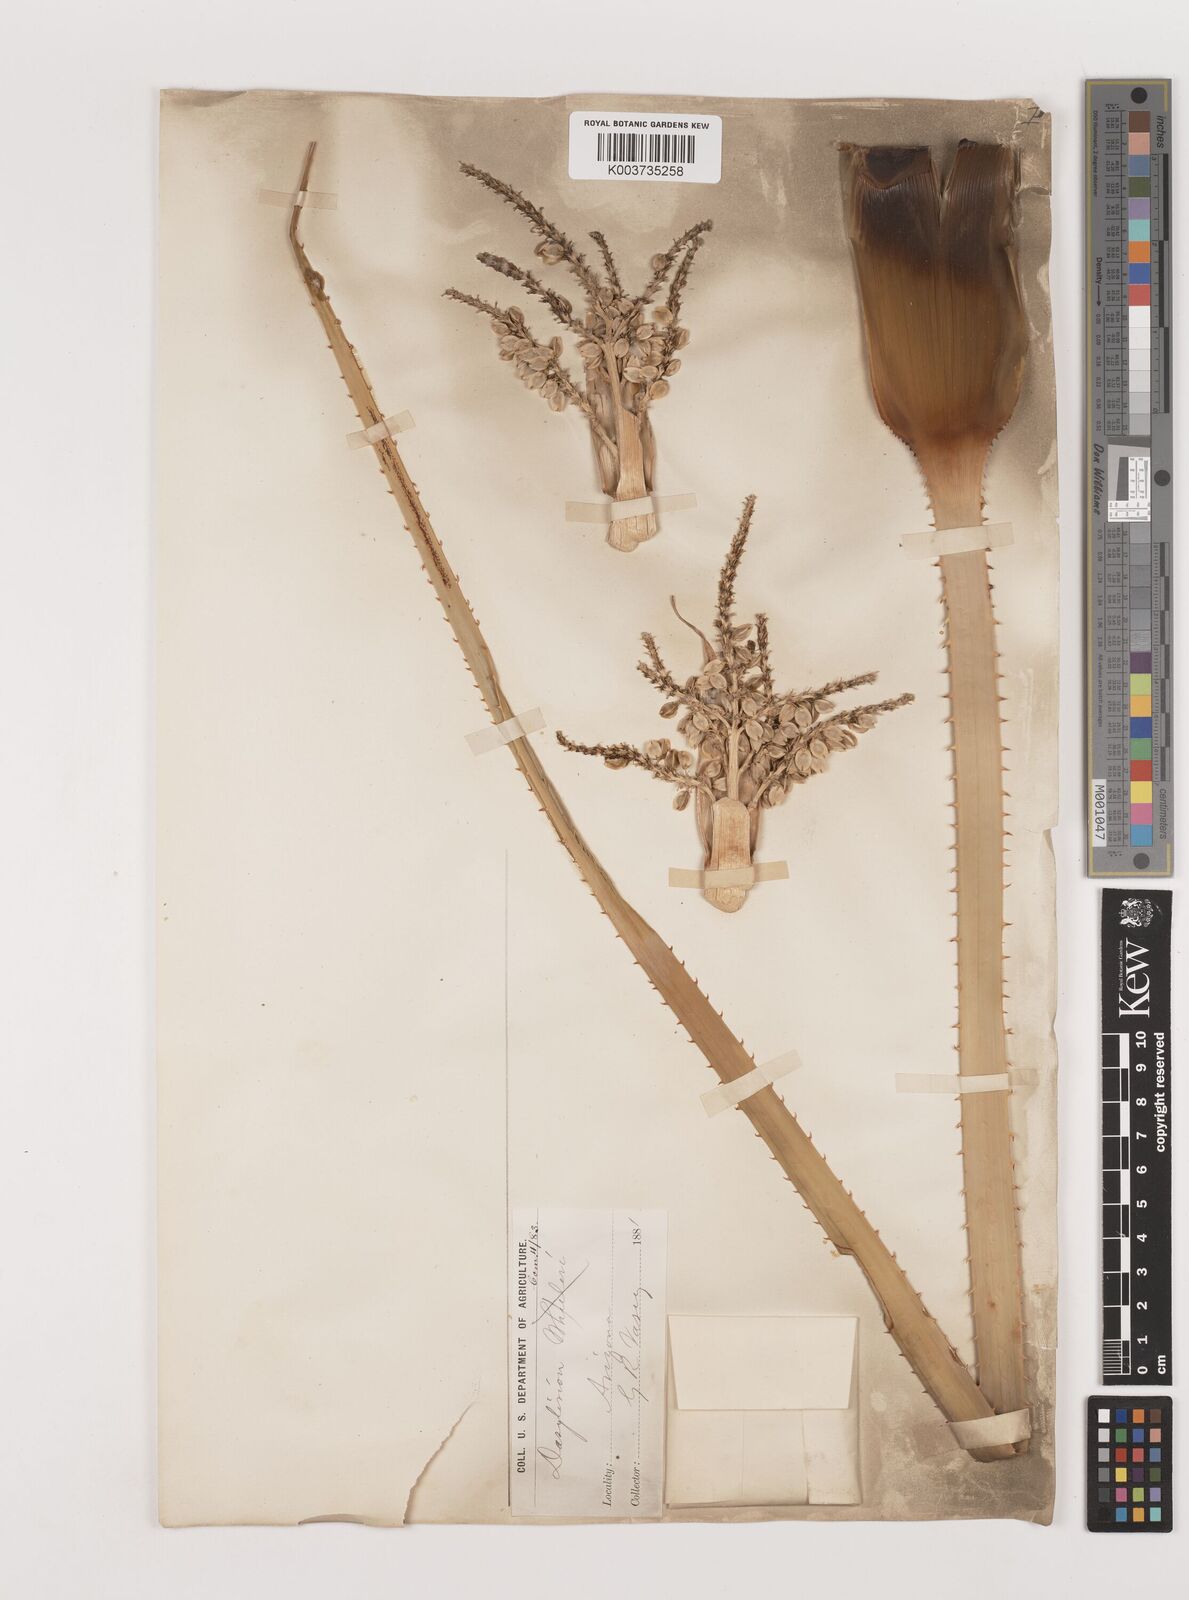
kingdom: Plantae
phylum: Tracheophyta
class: Liliopsida
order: Asparagales
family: Asparagaceae
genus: Dasylirion
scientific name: Dasylirion wheeleri
